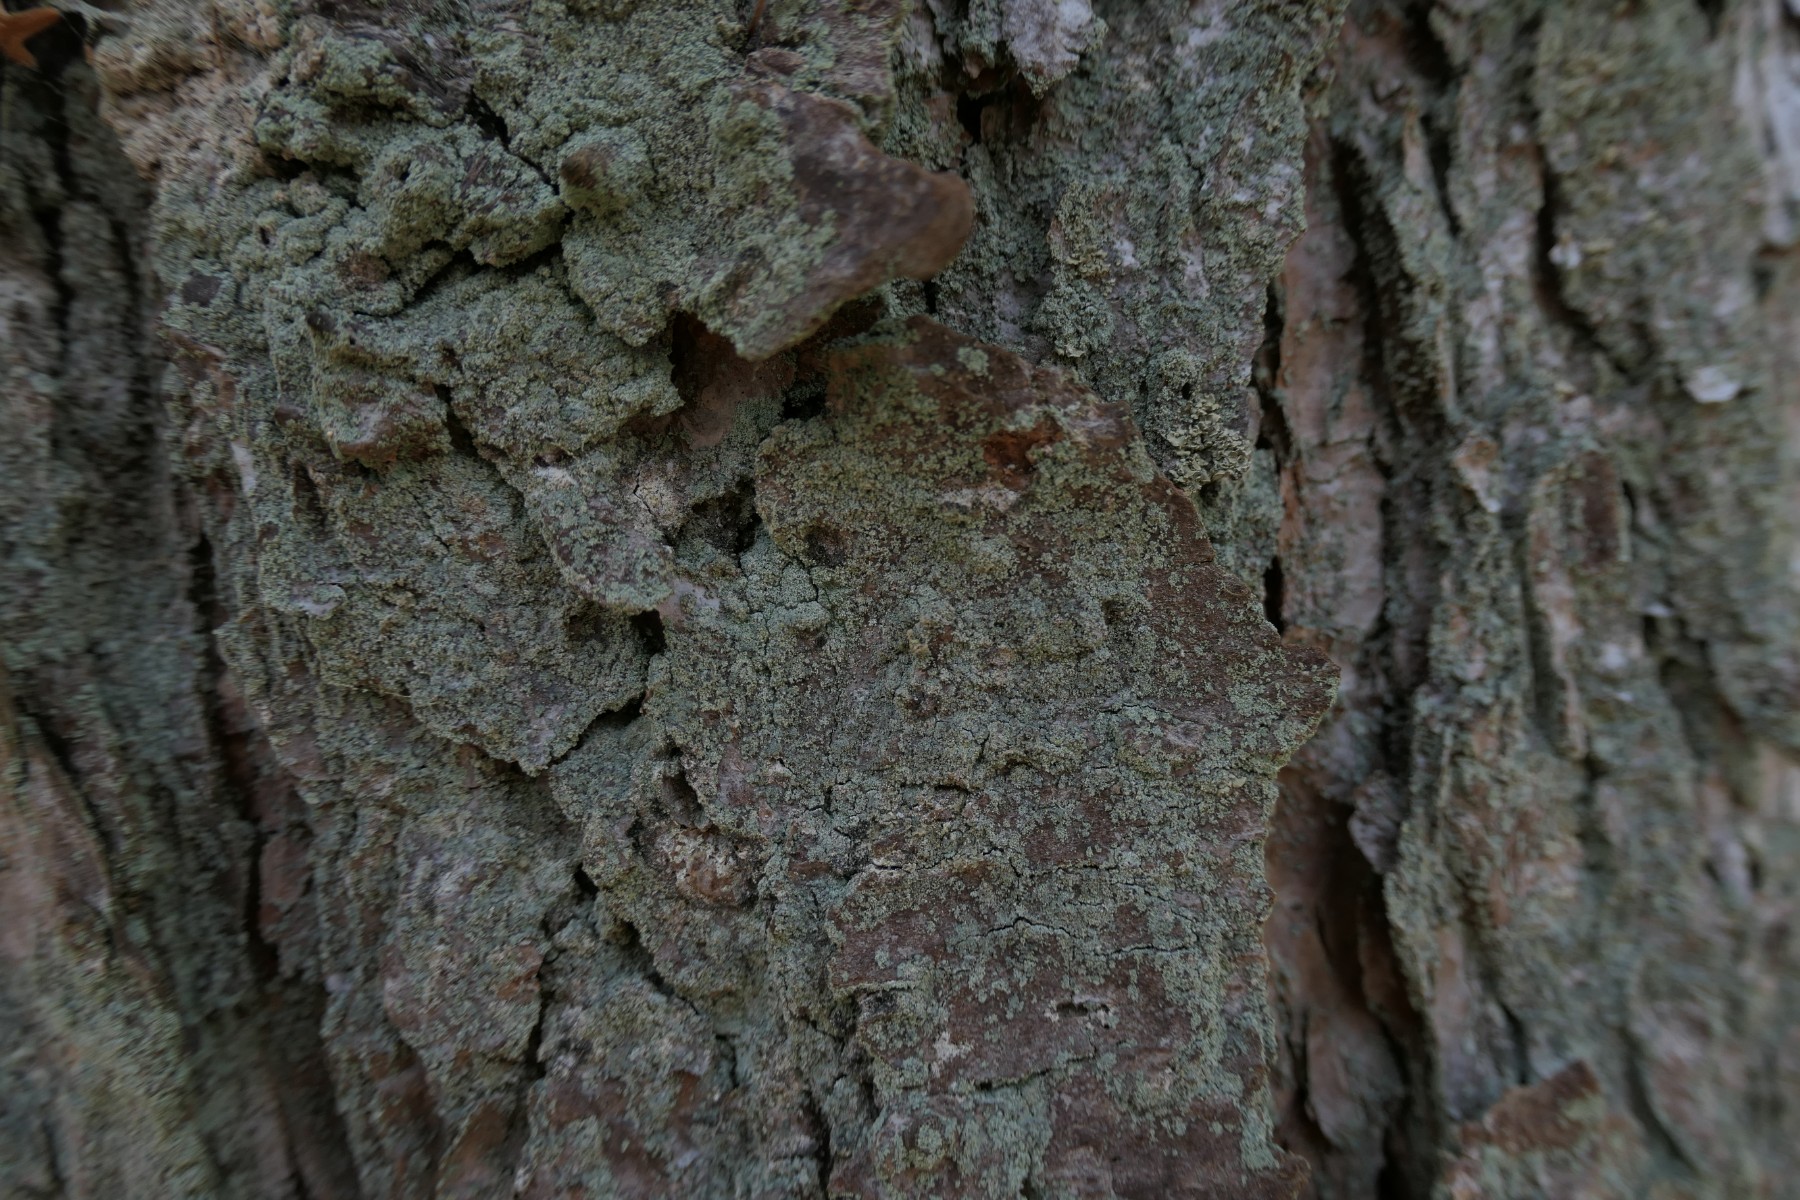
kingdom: Fungi
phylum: Ascomycota
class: Lecanoromycetes
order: Lecanorales
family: Stereocaulaceae
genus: Lepraria
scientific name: Lepraria incana
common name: almindelig støvlav
